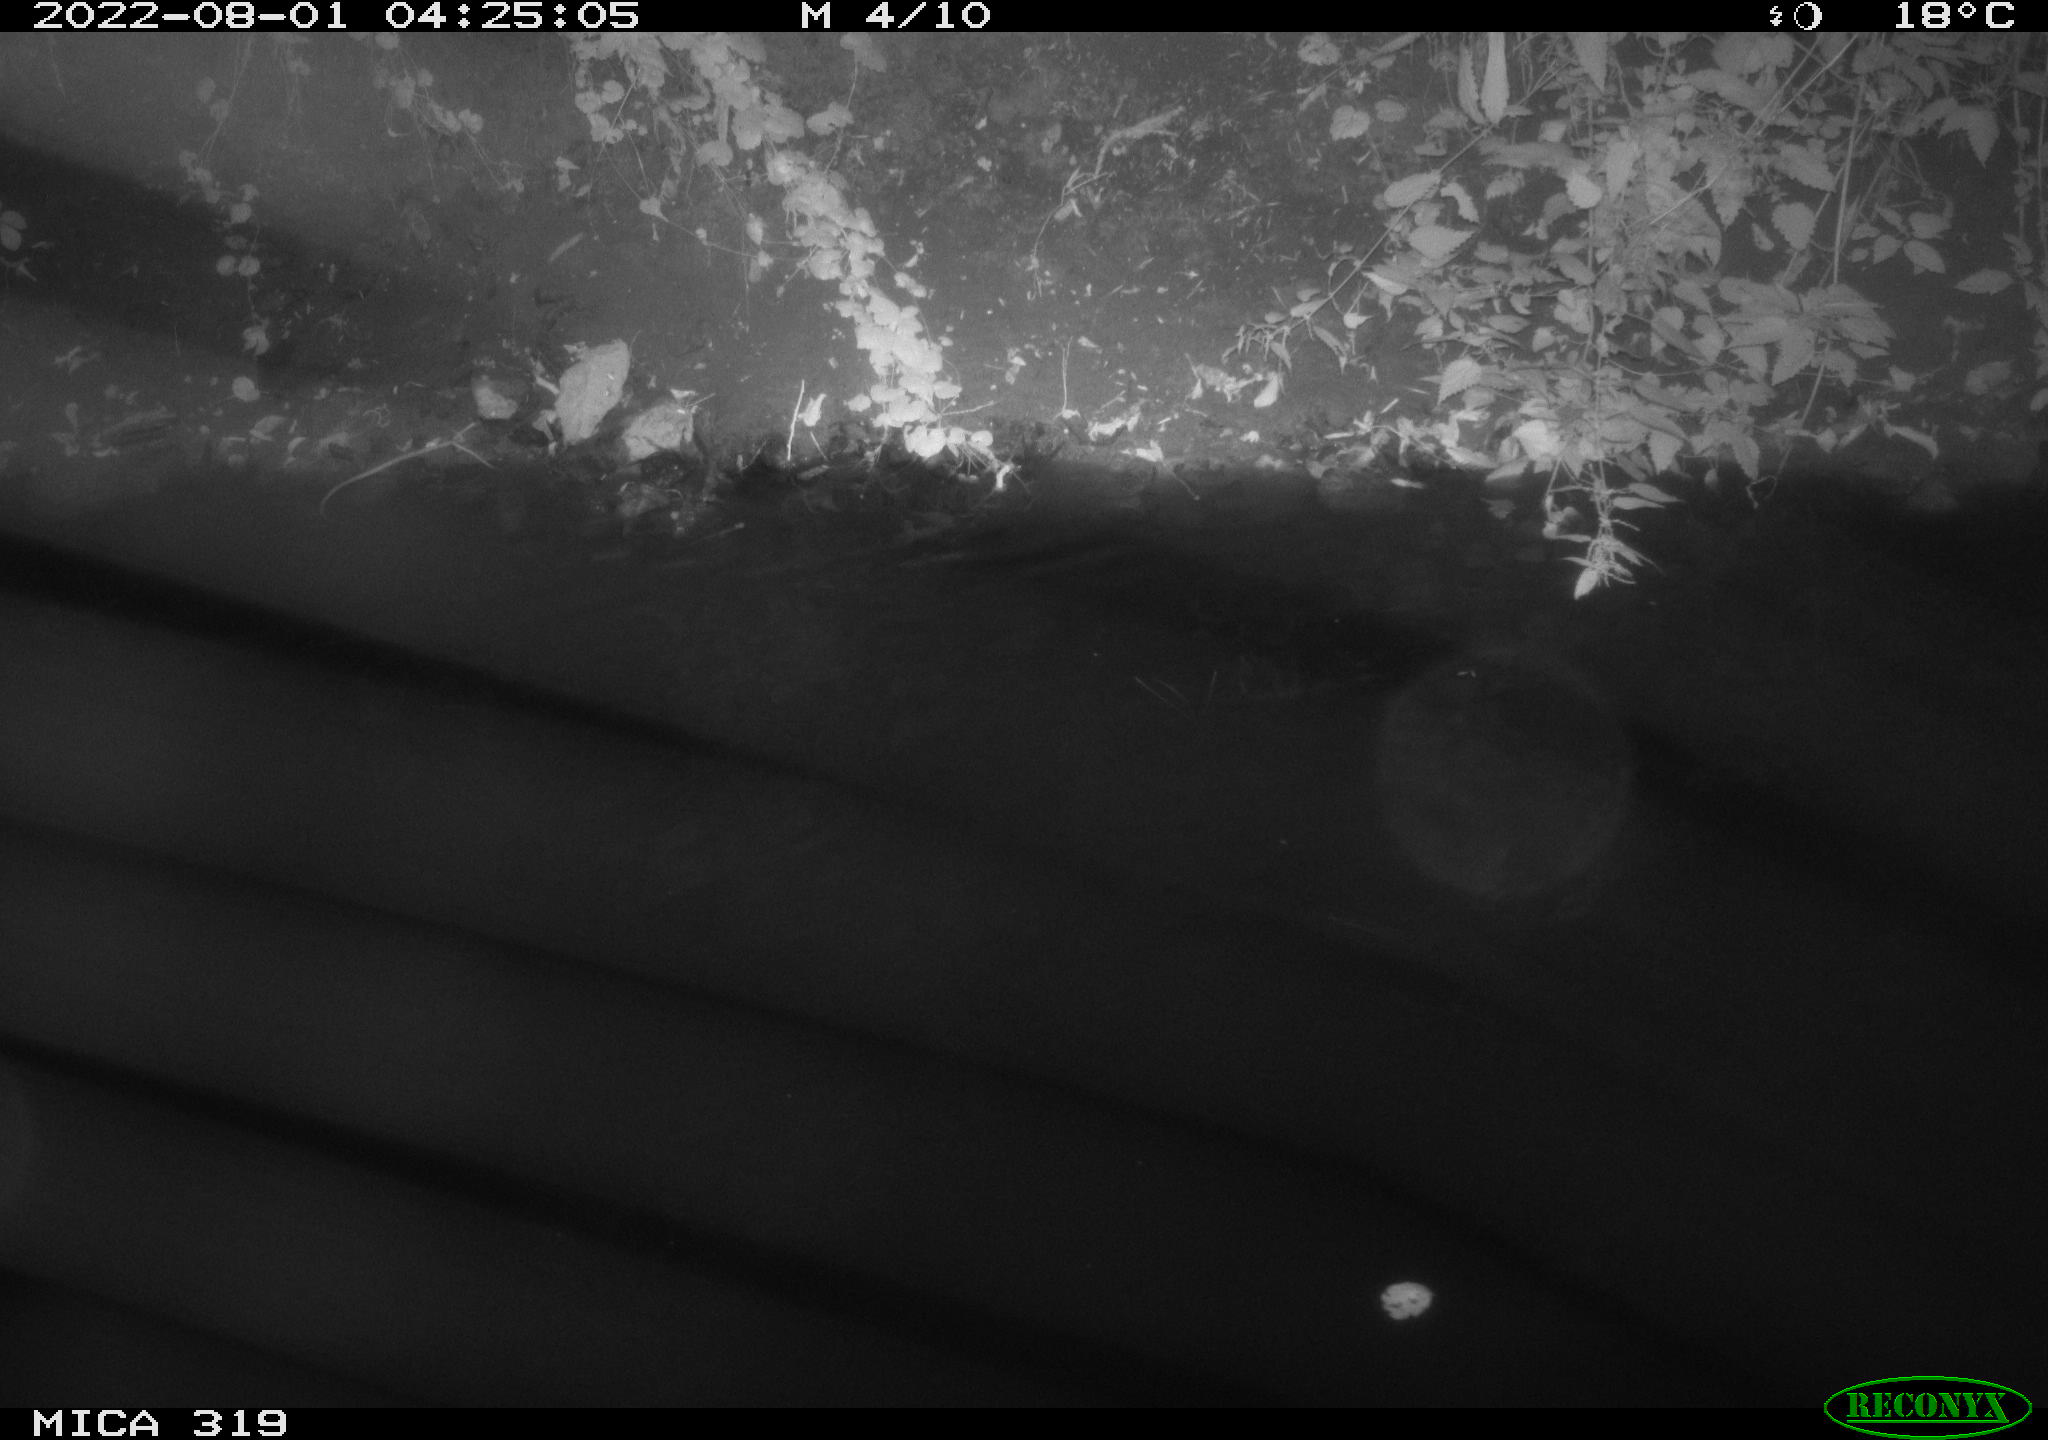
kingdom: Animalia
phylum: Chordata
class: Aves
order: Anseriformes
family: Anatidae
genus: Anas
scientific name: Anas
